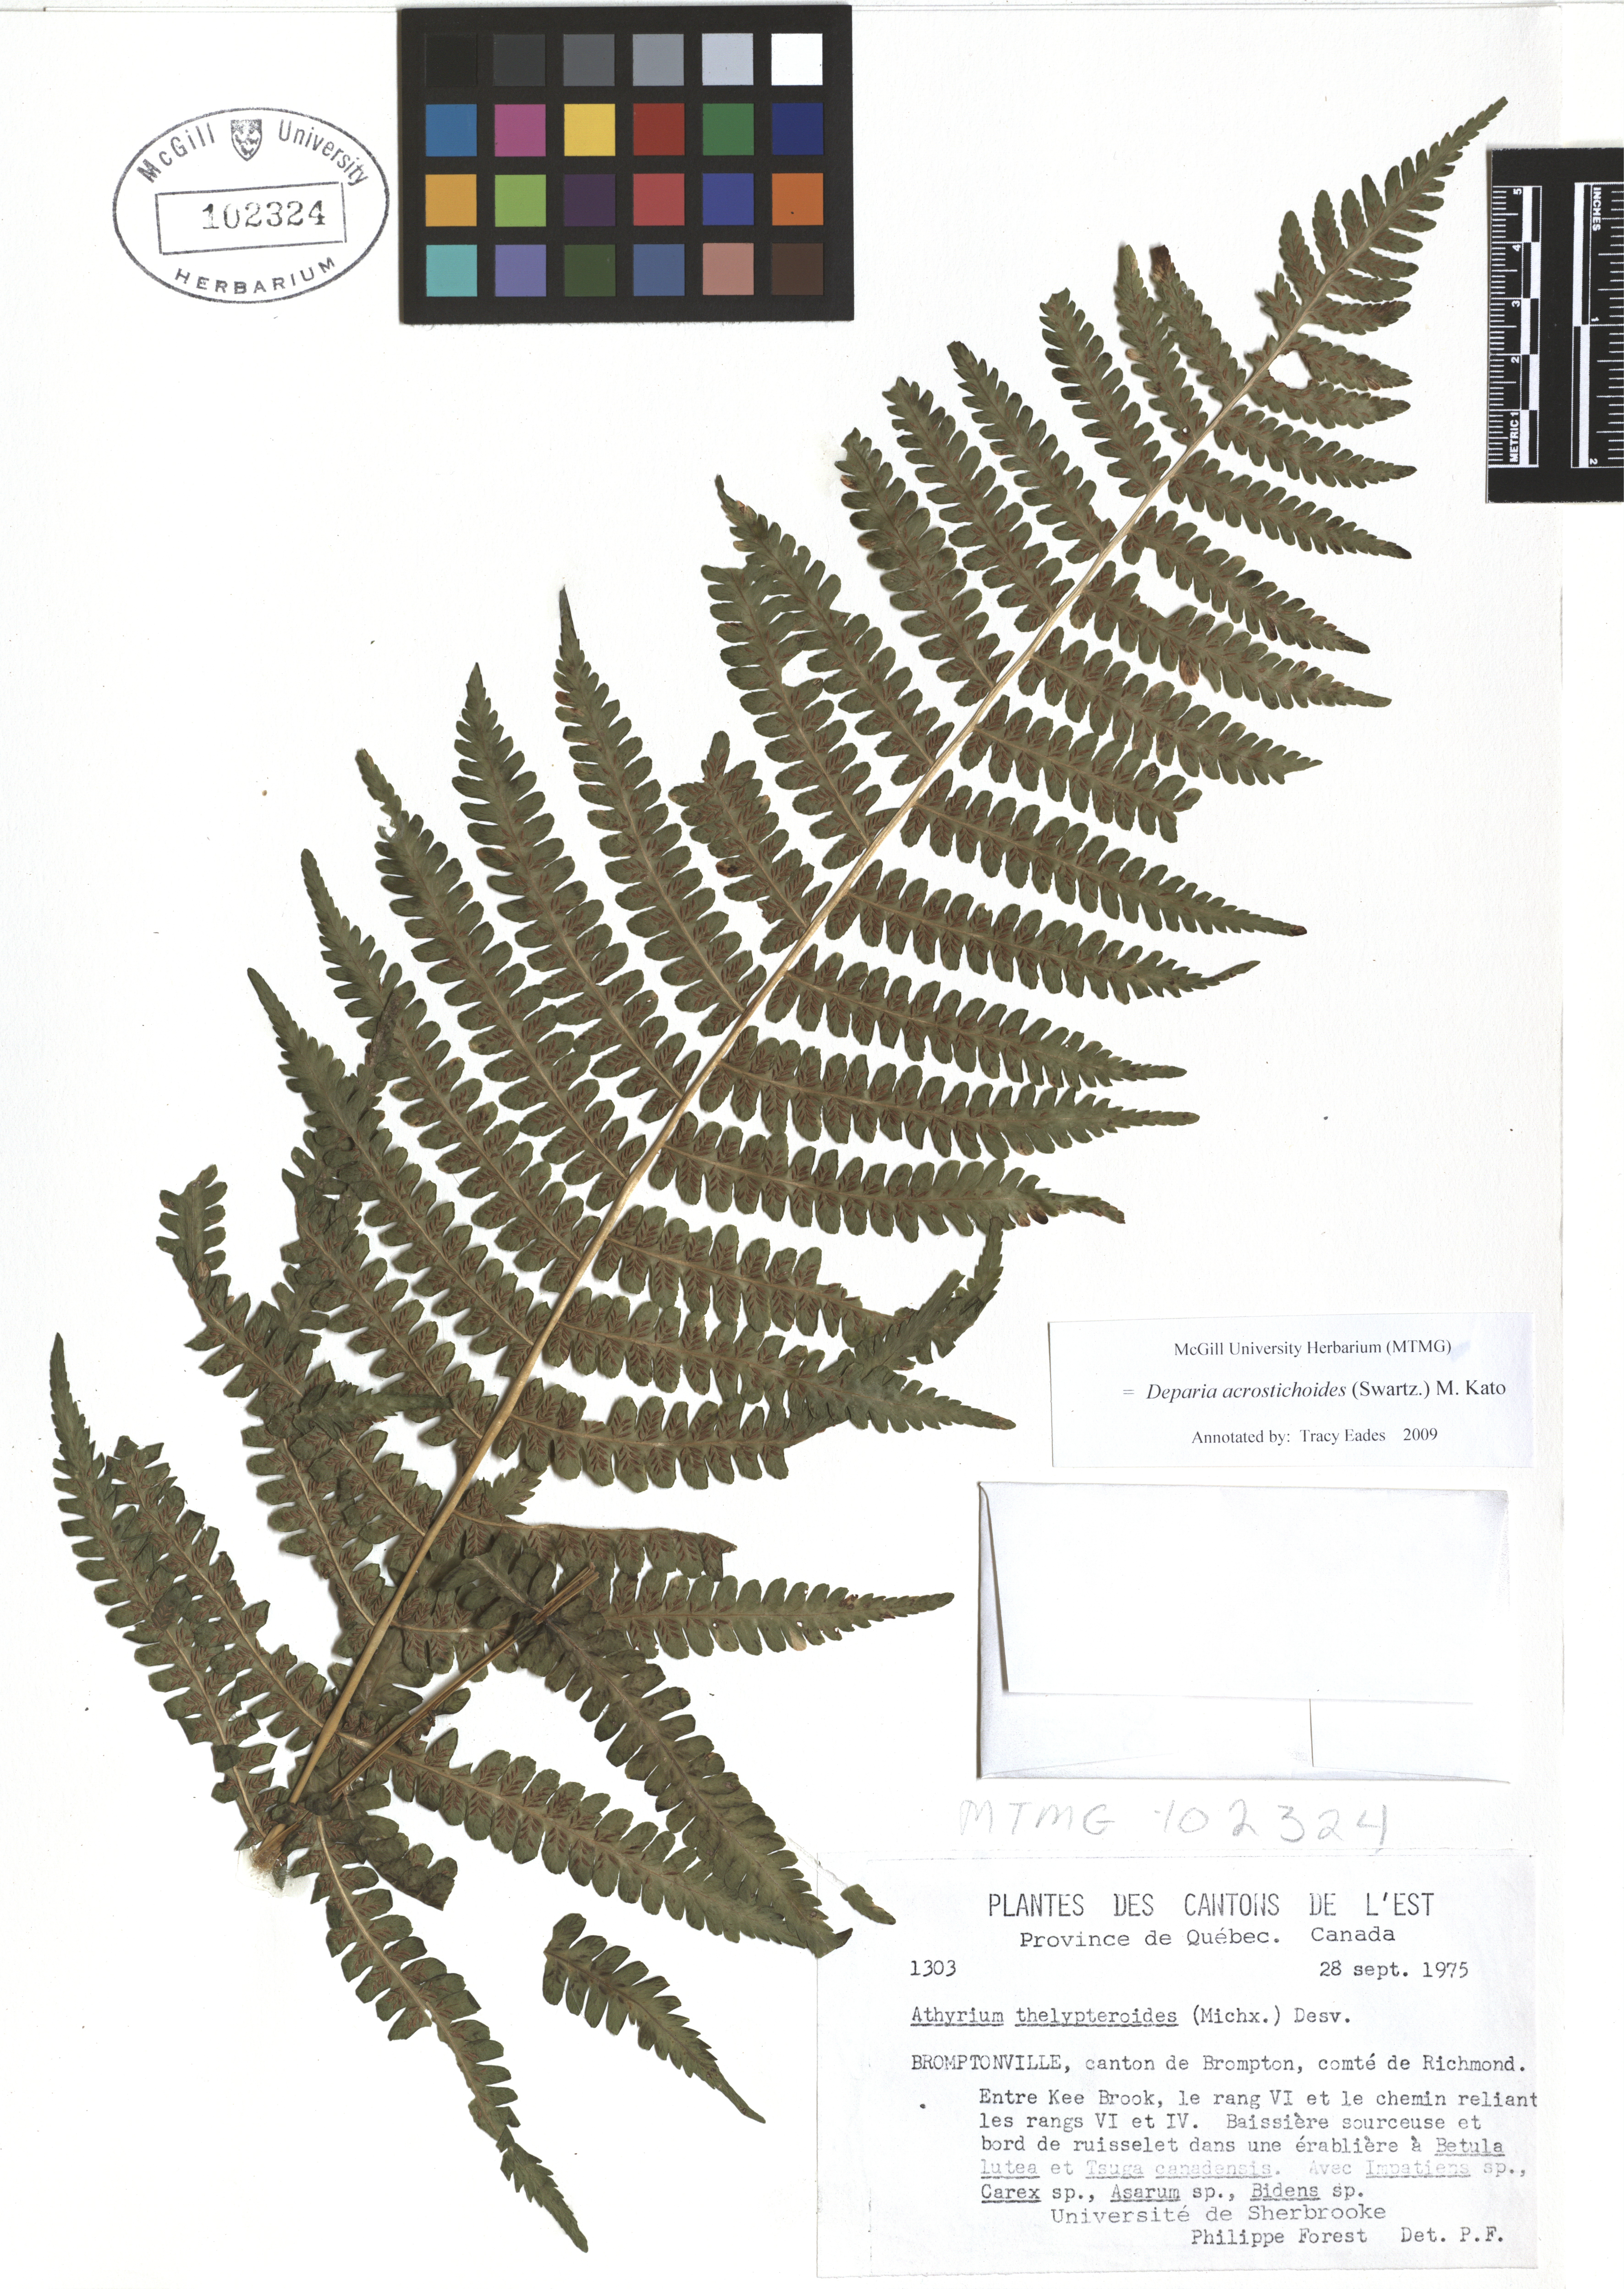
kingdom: Plantae
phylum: Tracheophyta
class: Polypodiopsida
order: Polypodiales
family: Athyriaceae
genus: Deparia
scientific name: Deparia acrostichoides
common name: Silver false spleenwort
